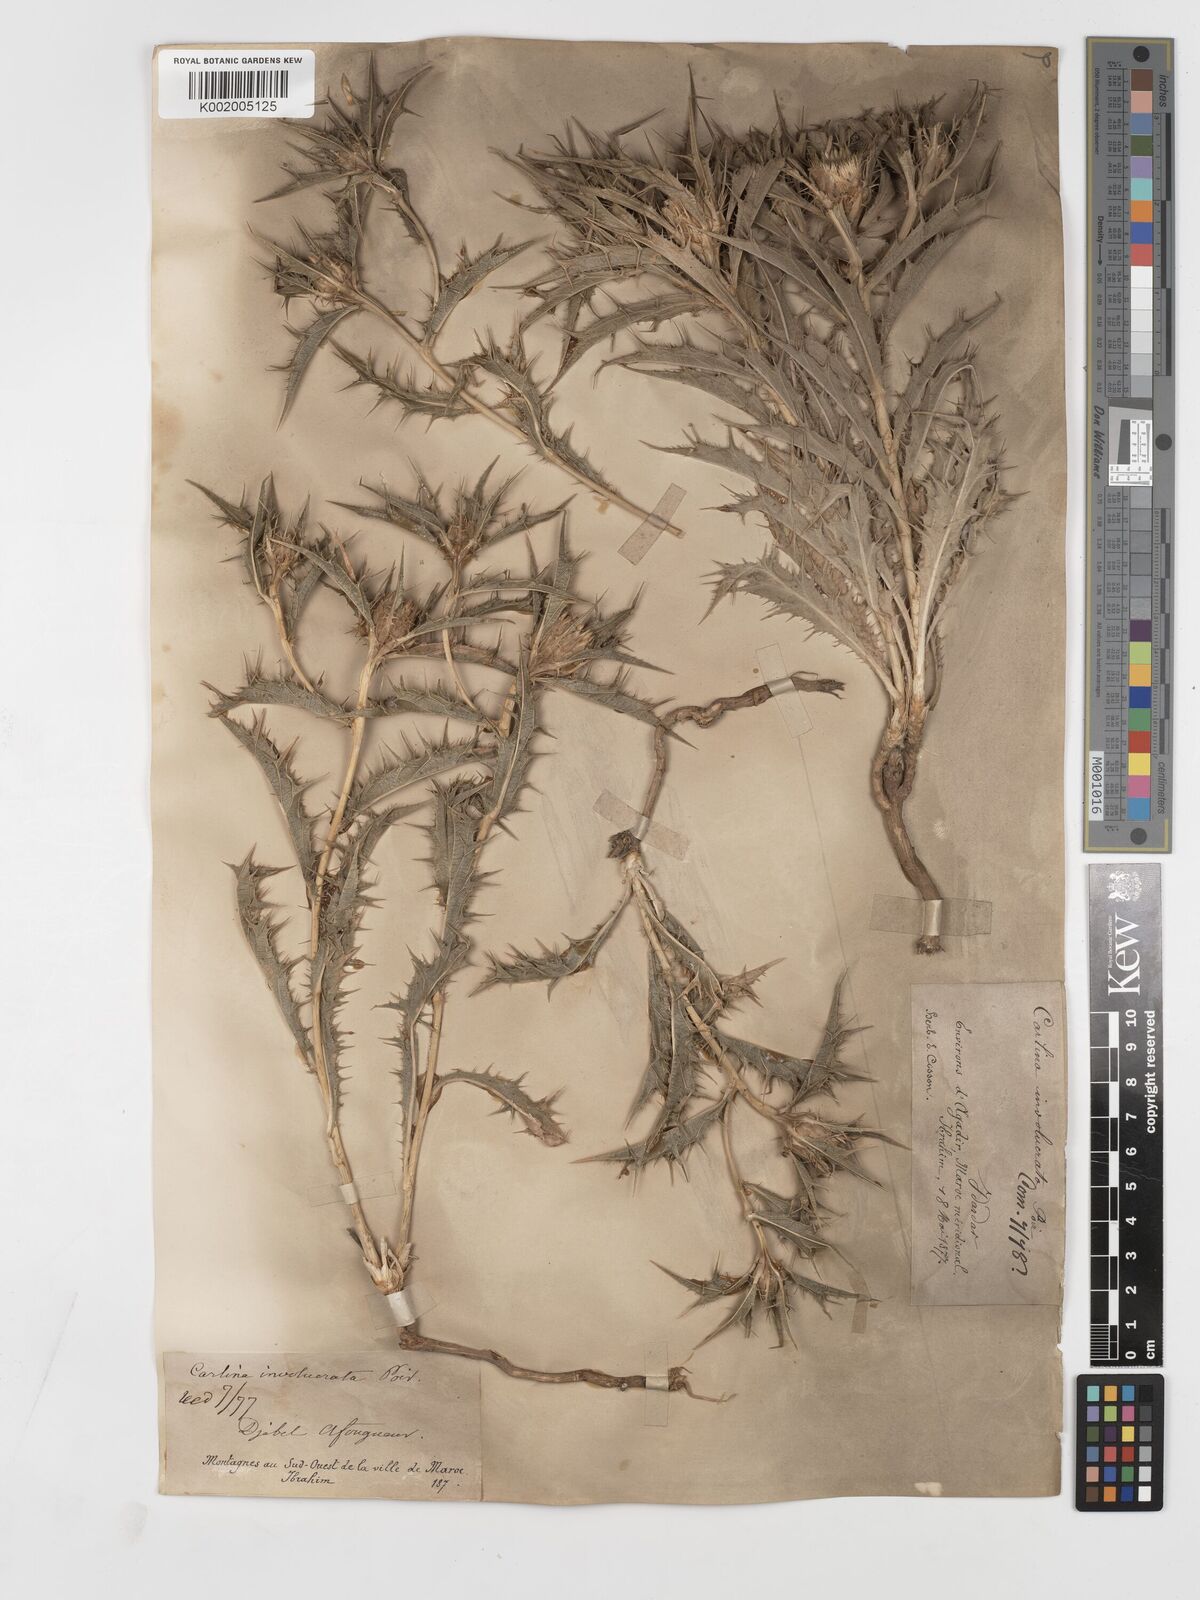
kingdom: Plantae
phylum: Tracheophyta
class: Magnoliopsida
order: Asterales
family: Asteraceae
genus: Carlina
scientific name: Carlina involucrata
